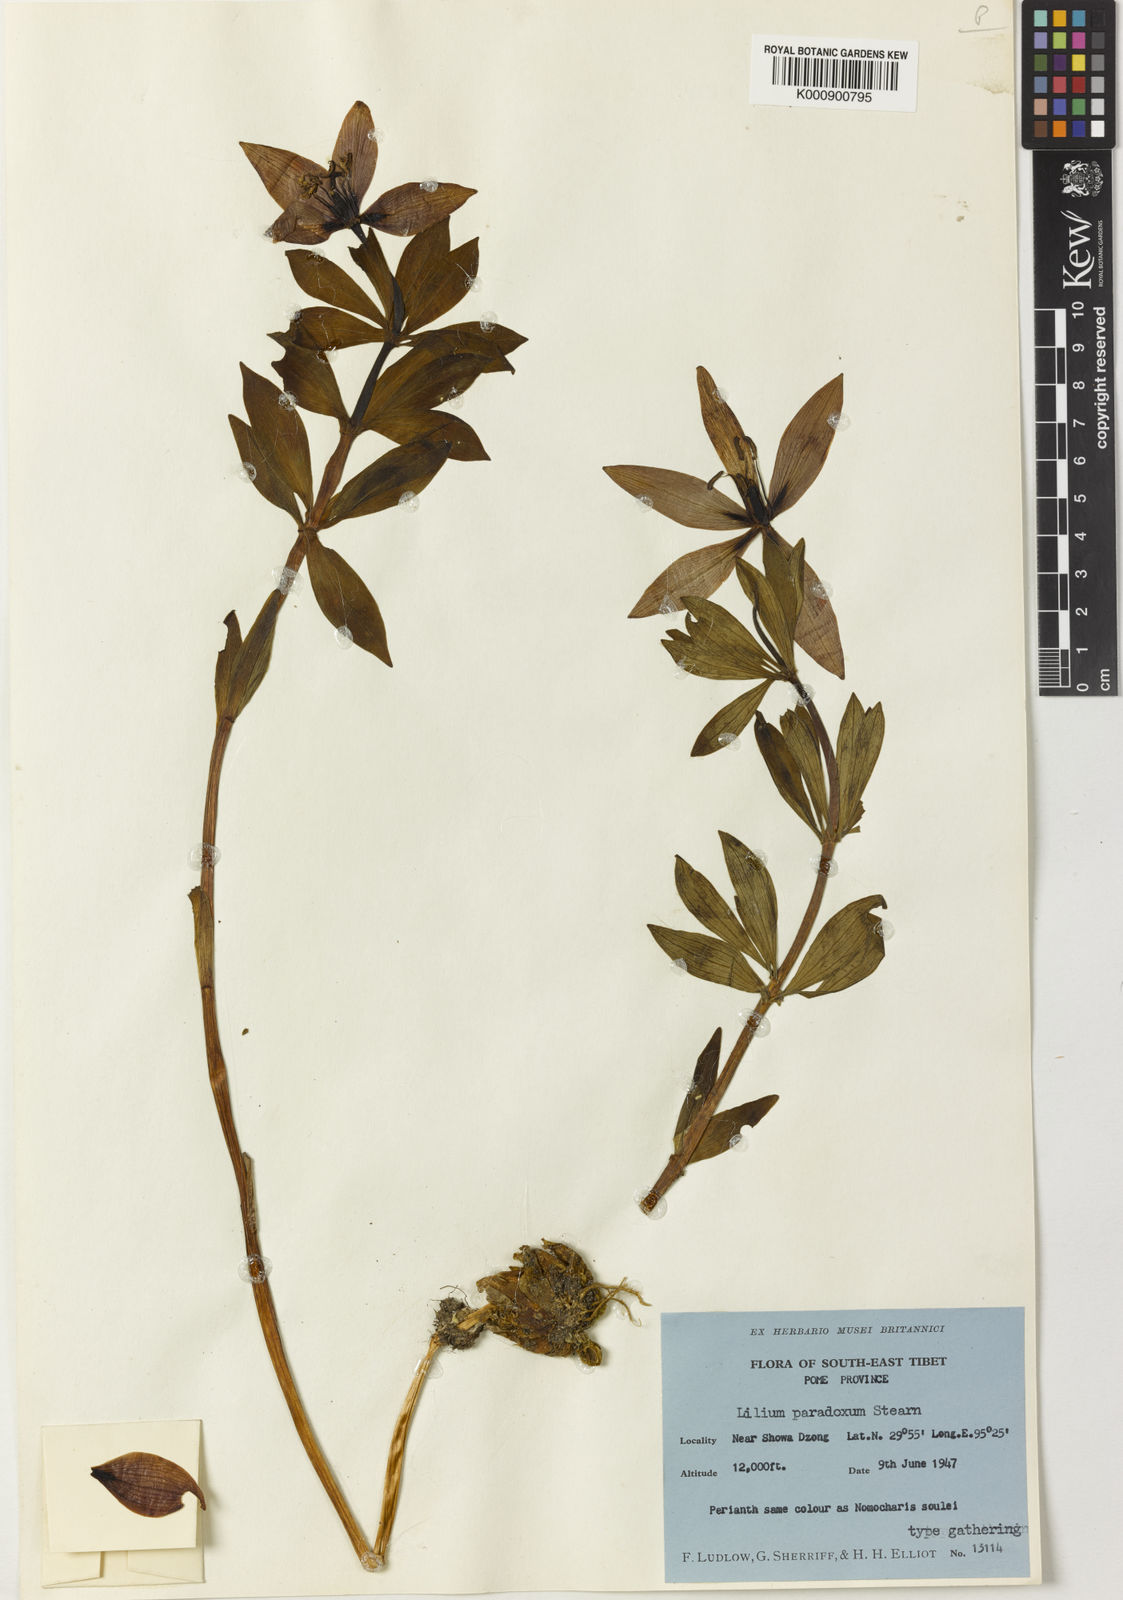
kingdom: Plantae
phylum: Tracheophyta
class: Liliopsida
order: Liliales
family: Liliaceae
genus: Lilium
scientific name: Lilium paradoxum
